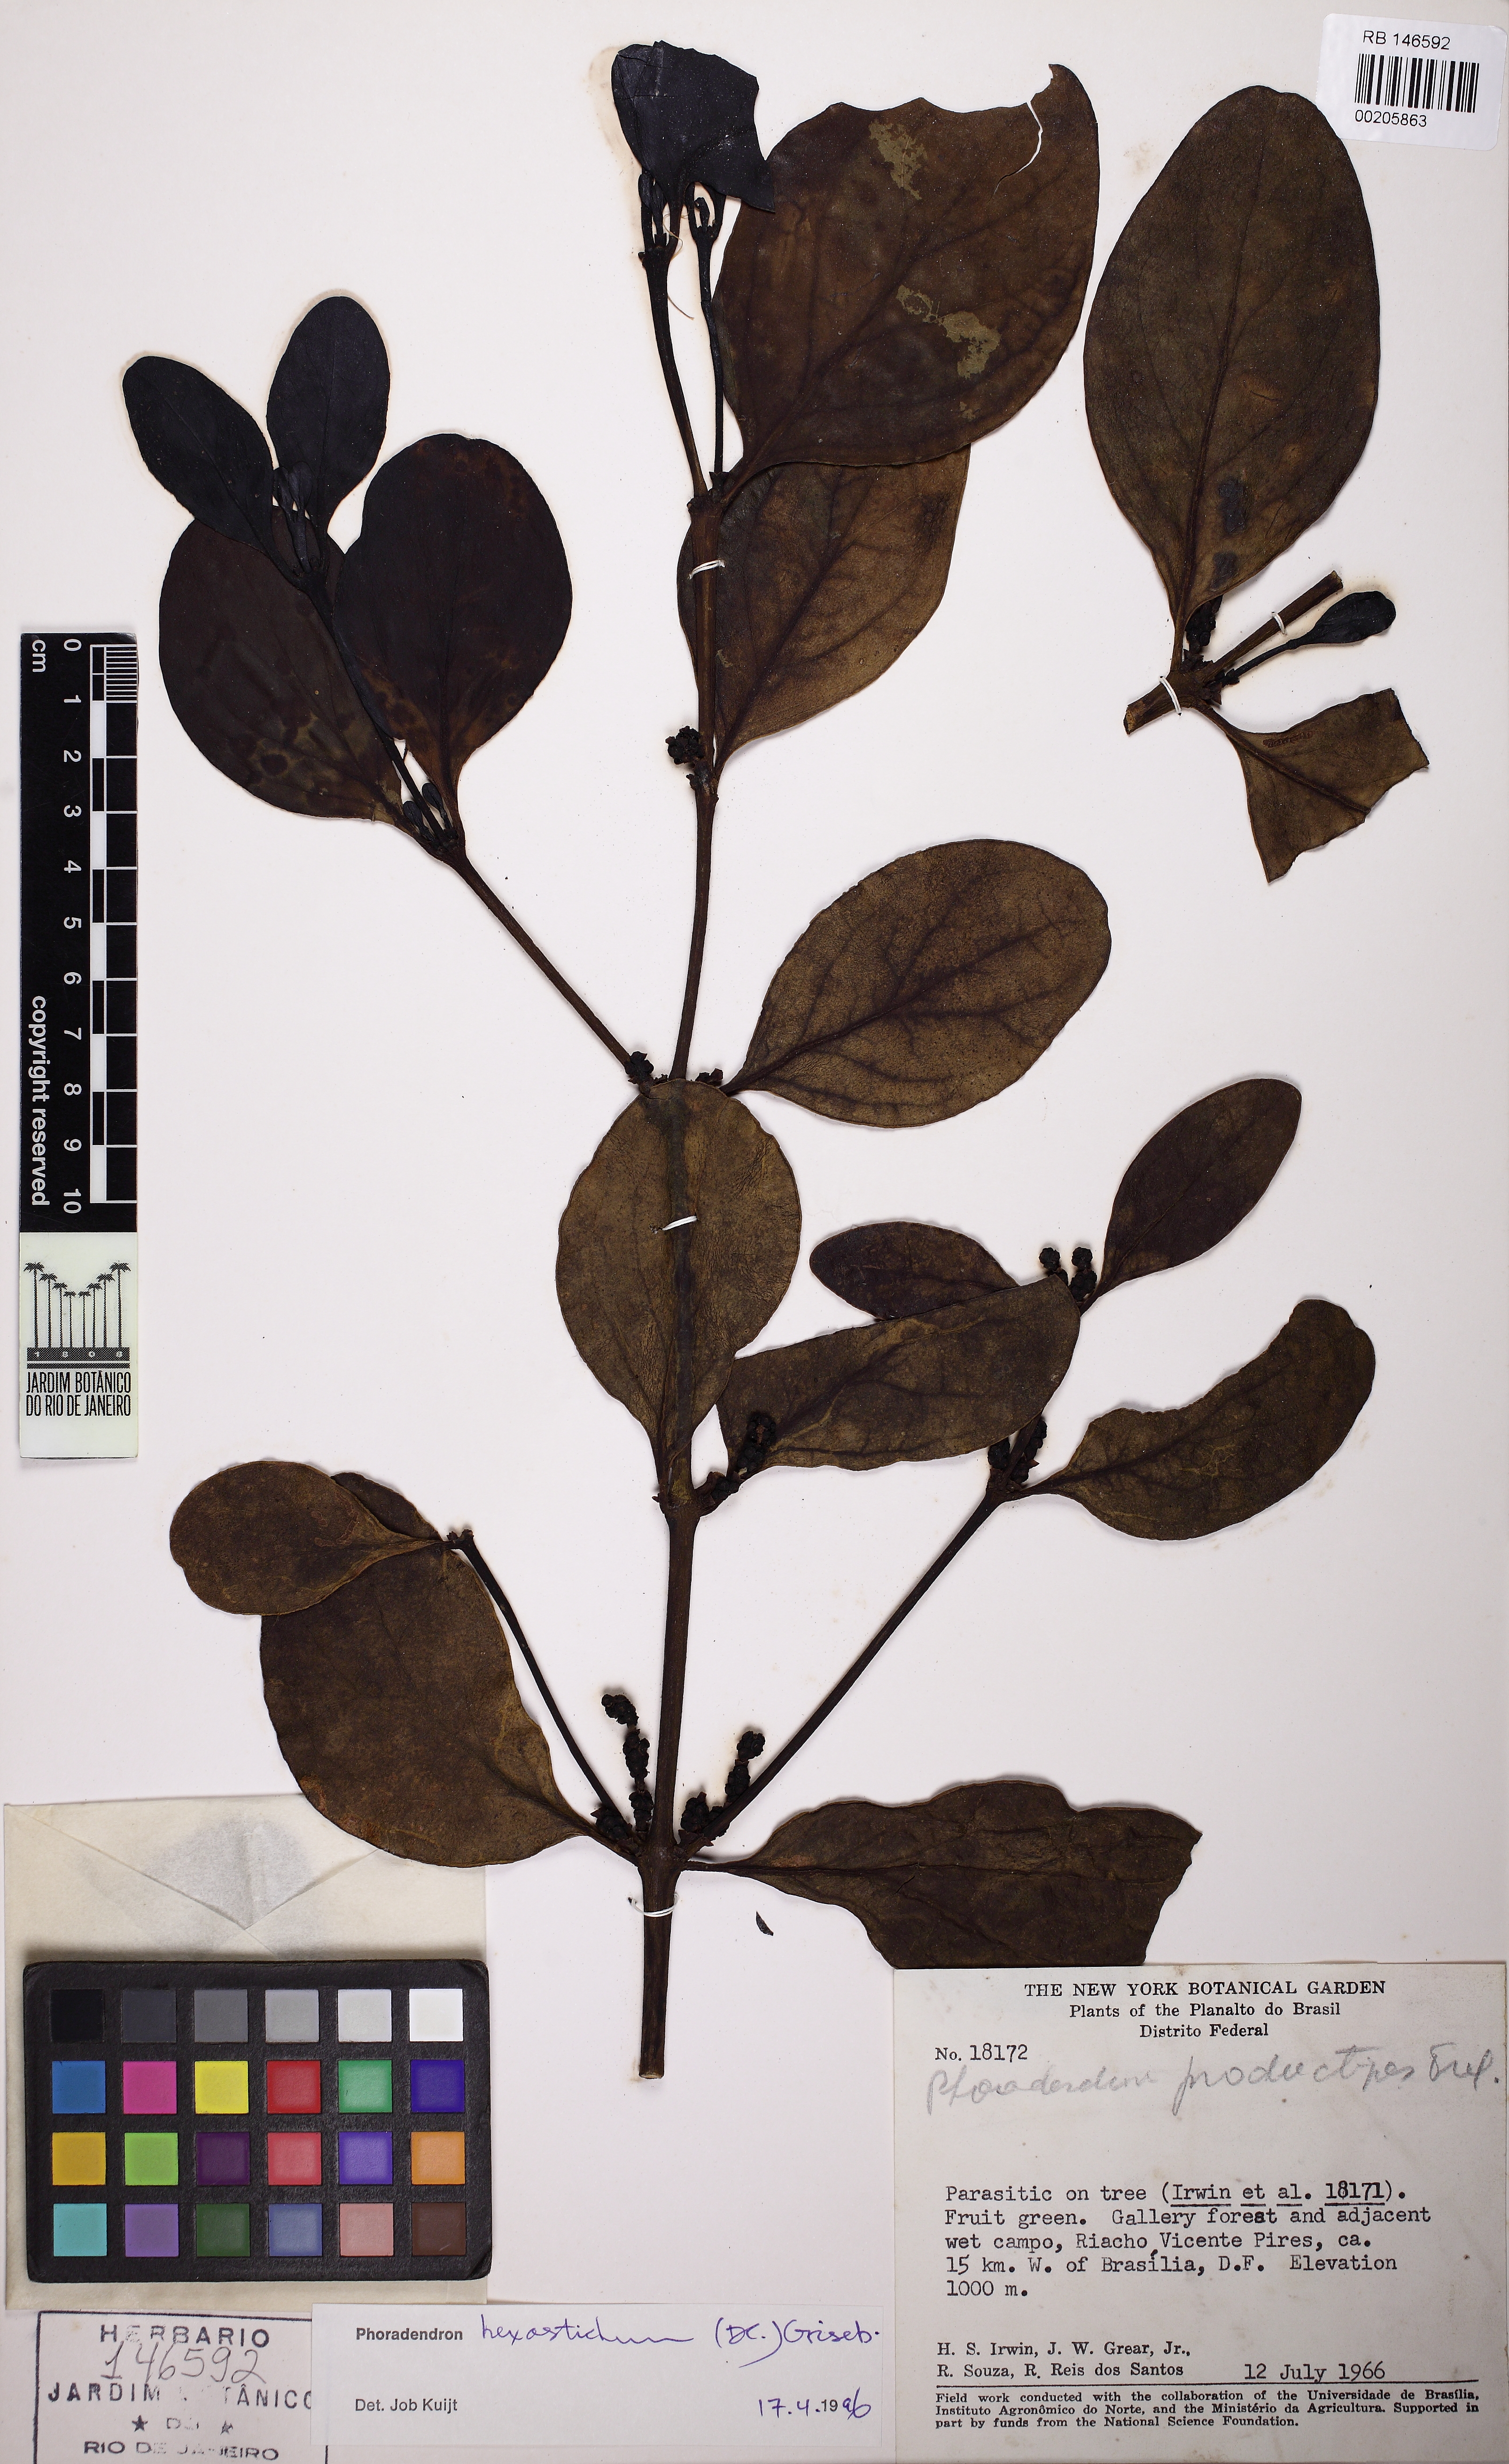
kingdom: Plantae
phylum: Tracheophyta
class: Magnoliopsida
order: Santalales
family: Viscaceae
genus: Phoradendron
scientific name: Phoradendron hexastichum
